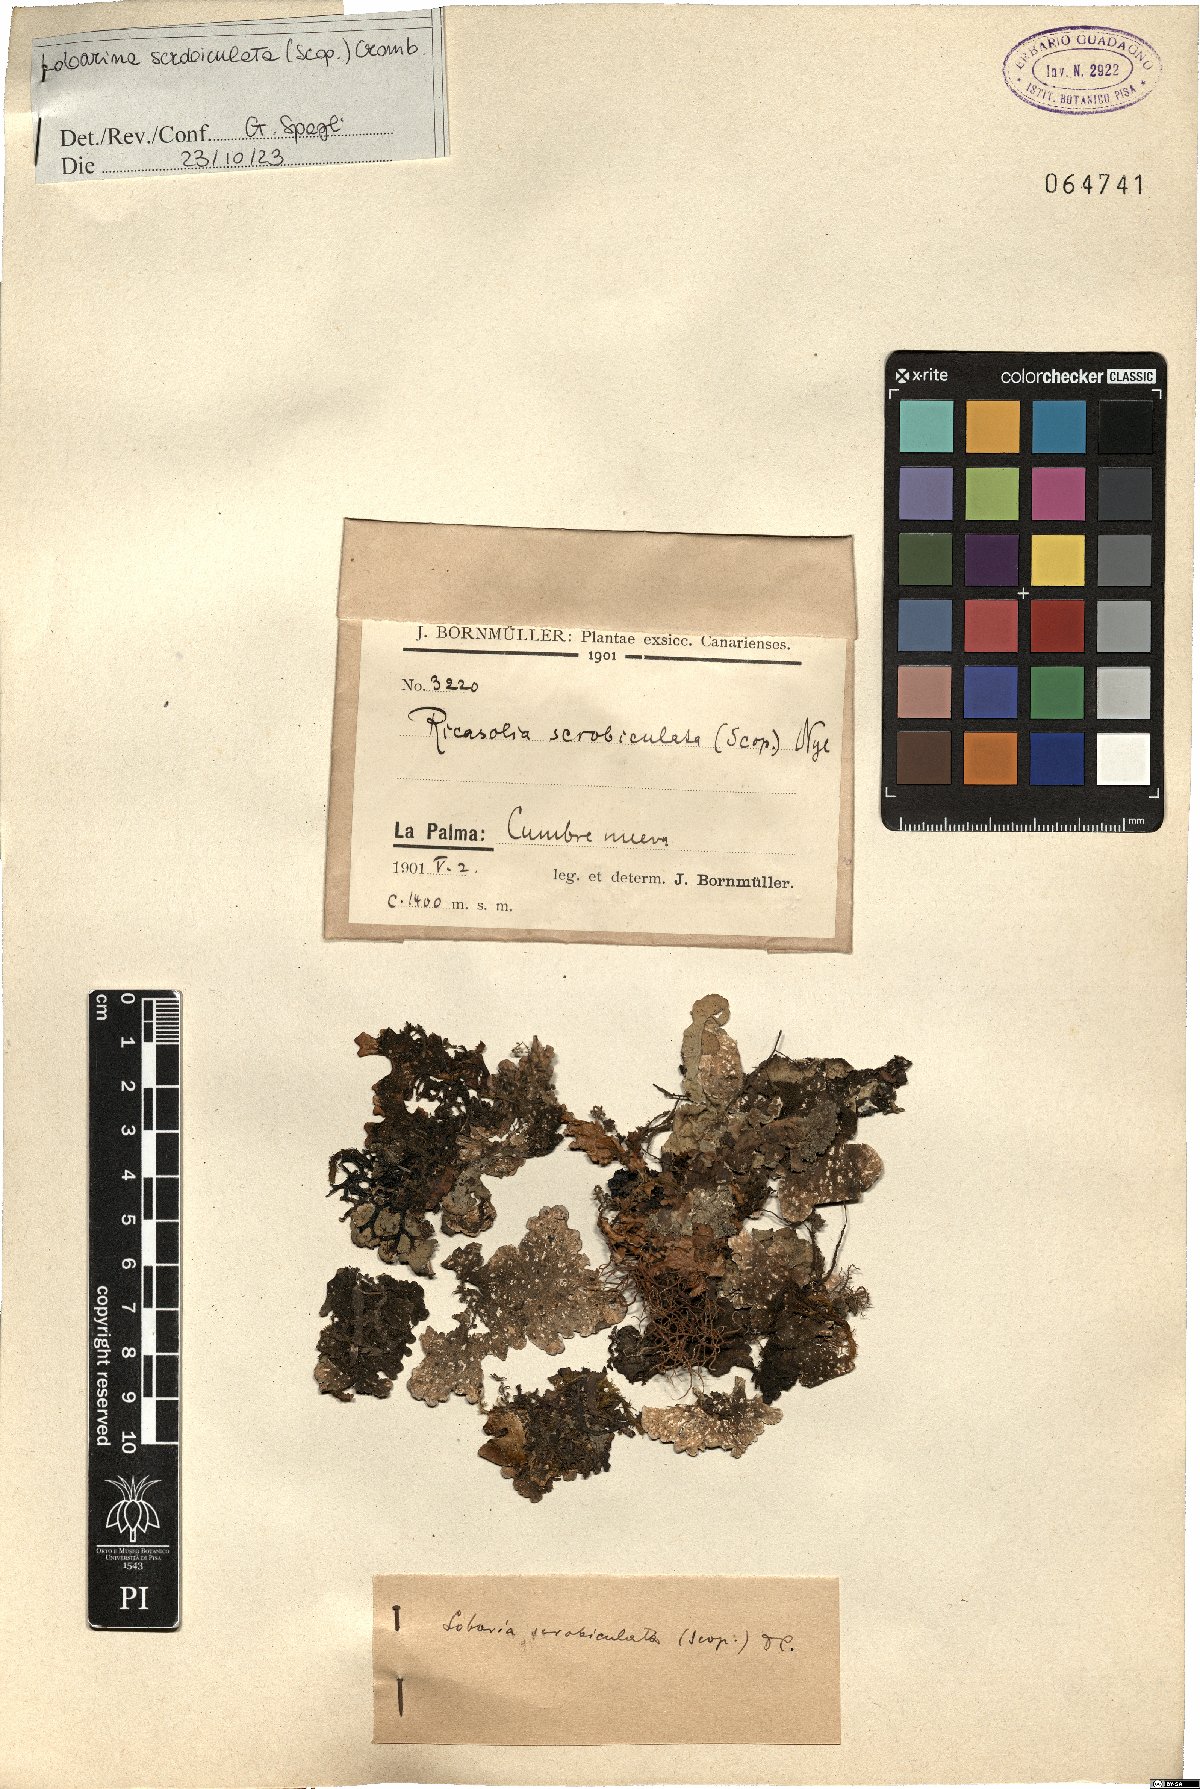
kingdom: Fungi
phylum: Ascomycota
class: Lecanoromycetes
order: Peltigerales
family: Lobariaceae
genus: Lobarina
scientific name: Lobarina scrobiculata
